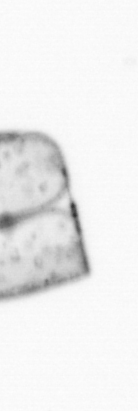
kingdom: Chromista
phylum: Ochrophyta
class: Bacillariophyceae
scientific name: Bacillariophyceae
